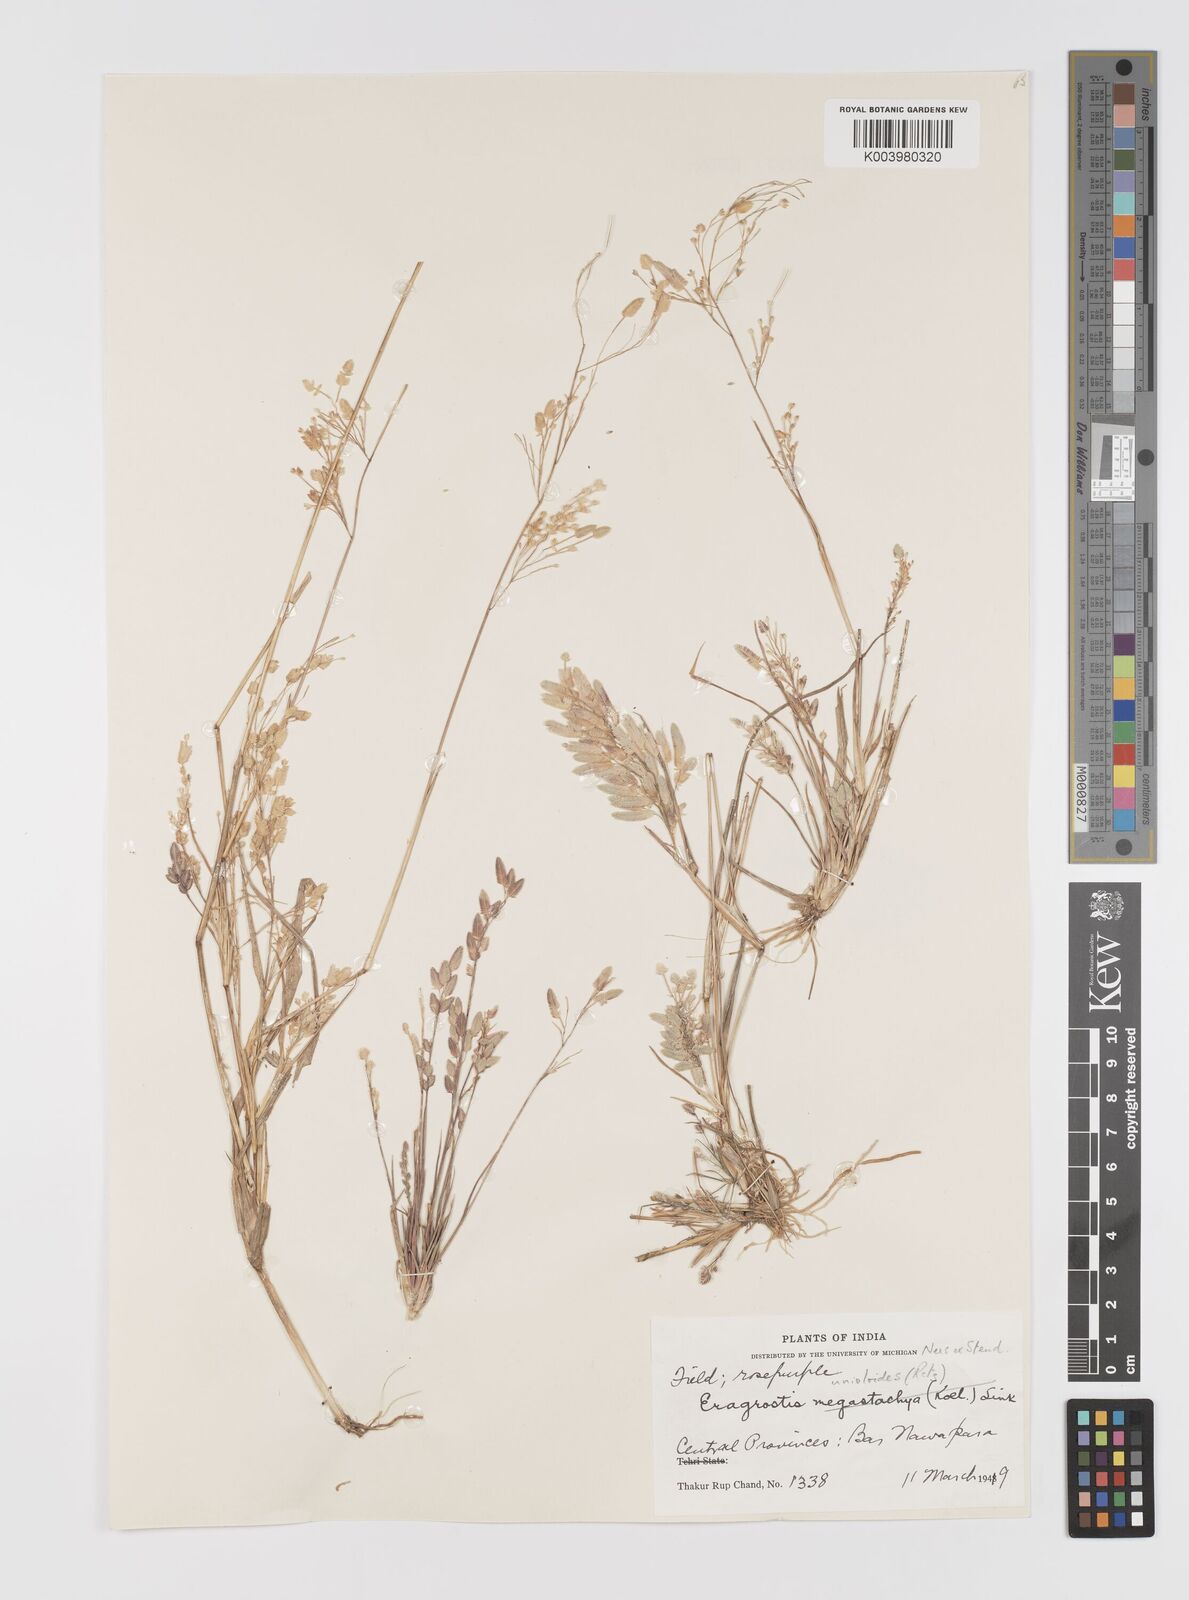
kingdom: Plantae
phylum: Tracheophyta
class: Liliopsida
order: Poales
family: Poaceae
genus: Eragrostis
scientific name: Eragrostis unioloides
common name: Chinese lovegrass
